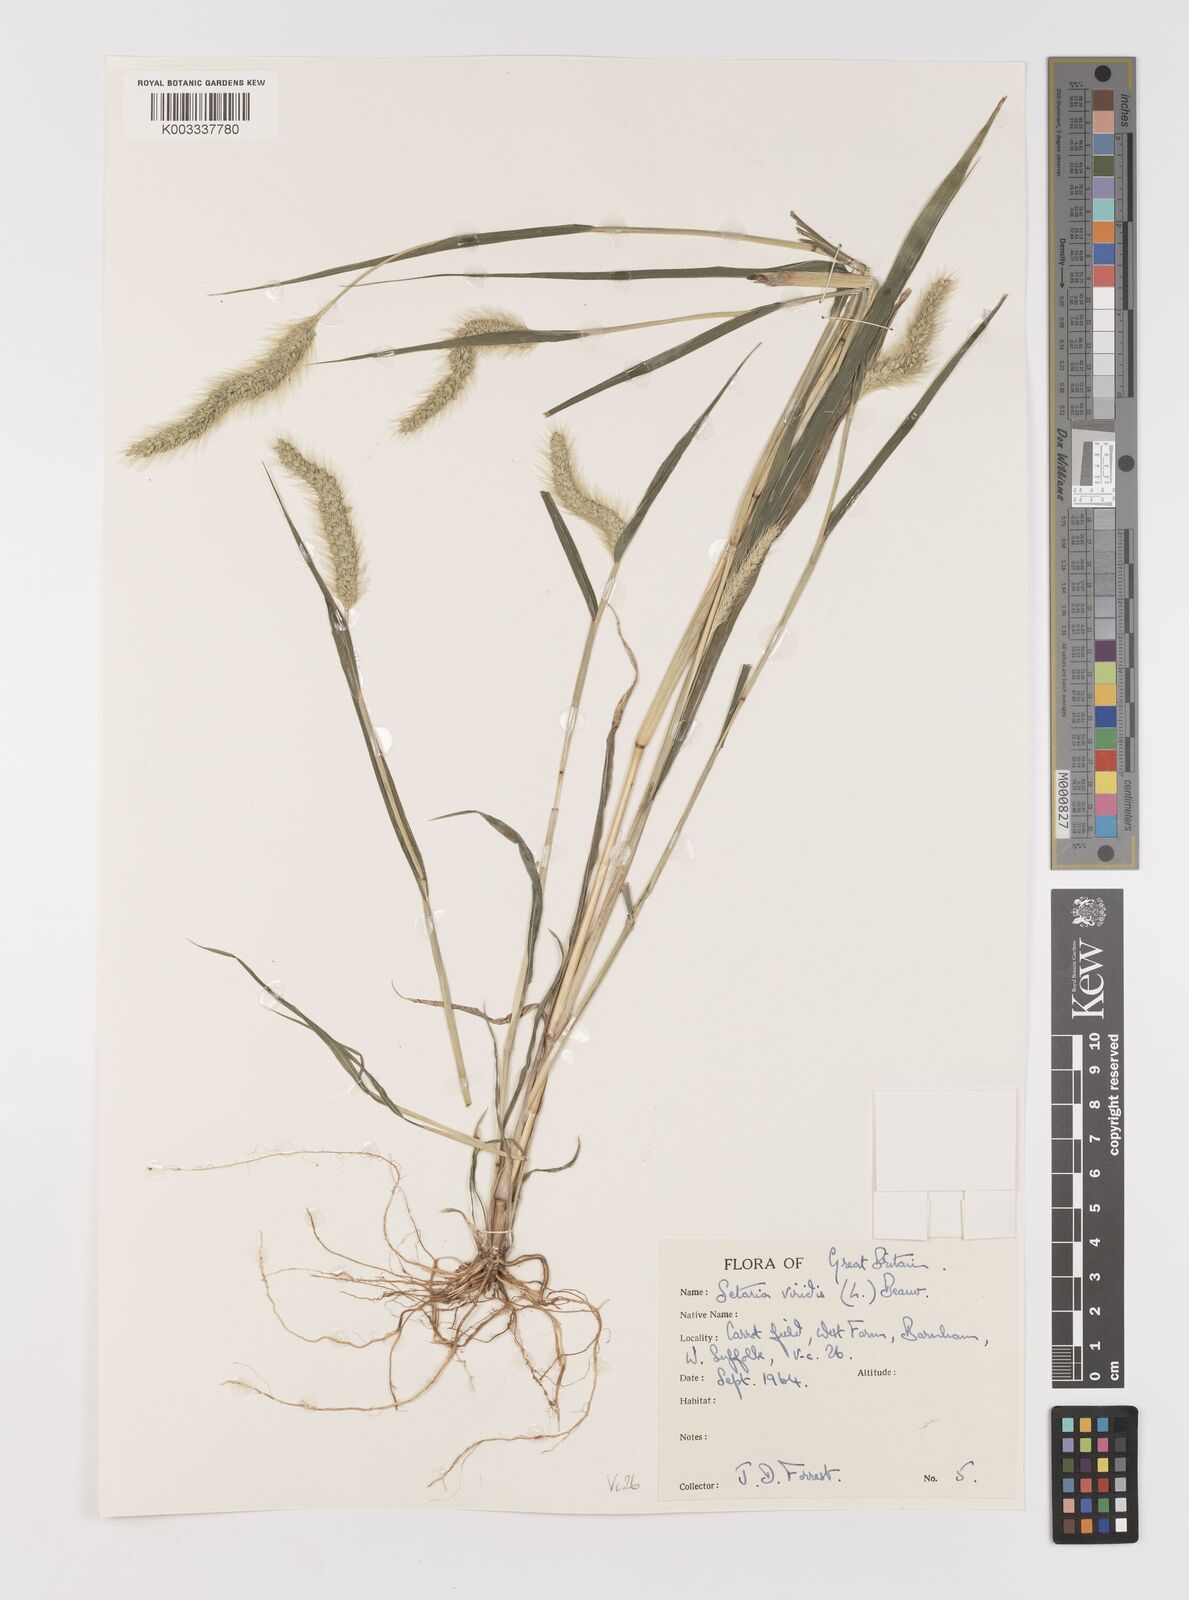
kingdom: Plantae
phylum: Tracheophyta
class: Liliopsida
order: Poales
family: Poaceae
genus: Setaria
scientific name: Setaria viridis
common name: Green bristlegrass
